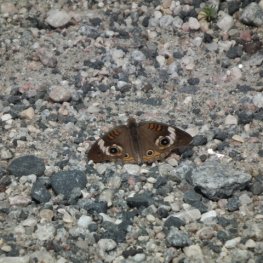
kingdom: Animalia
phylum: Arthropoda
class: Insecta
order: Lepidoptera
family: Nymphalidae
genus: Junonia
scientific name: Junonia coenia
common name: Common Buckeye
